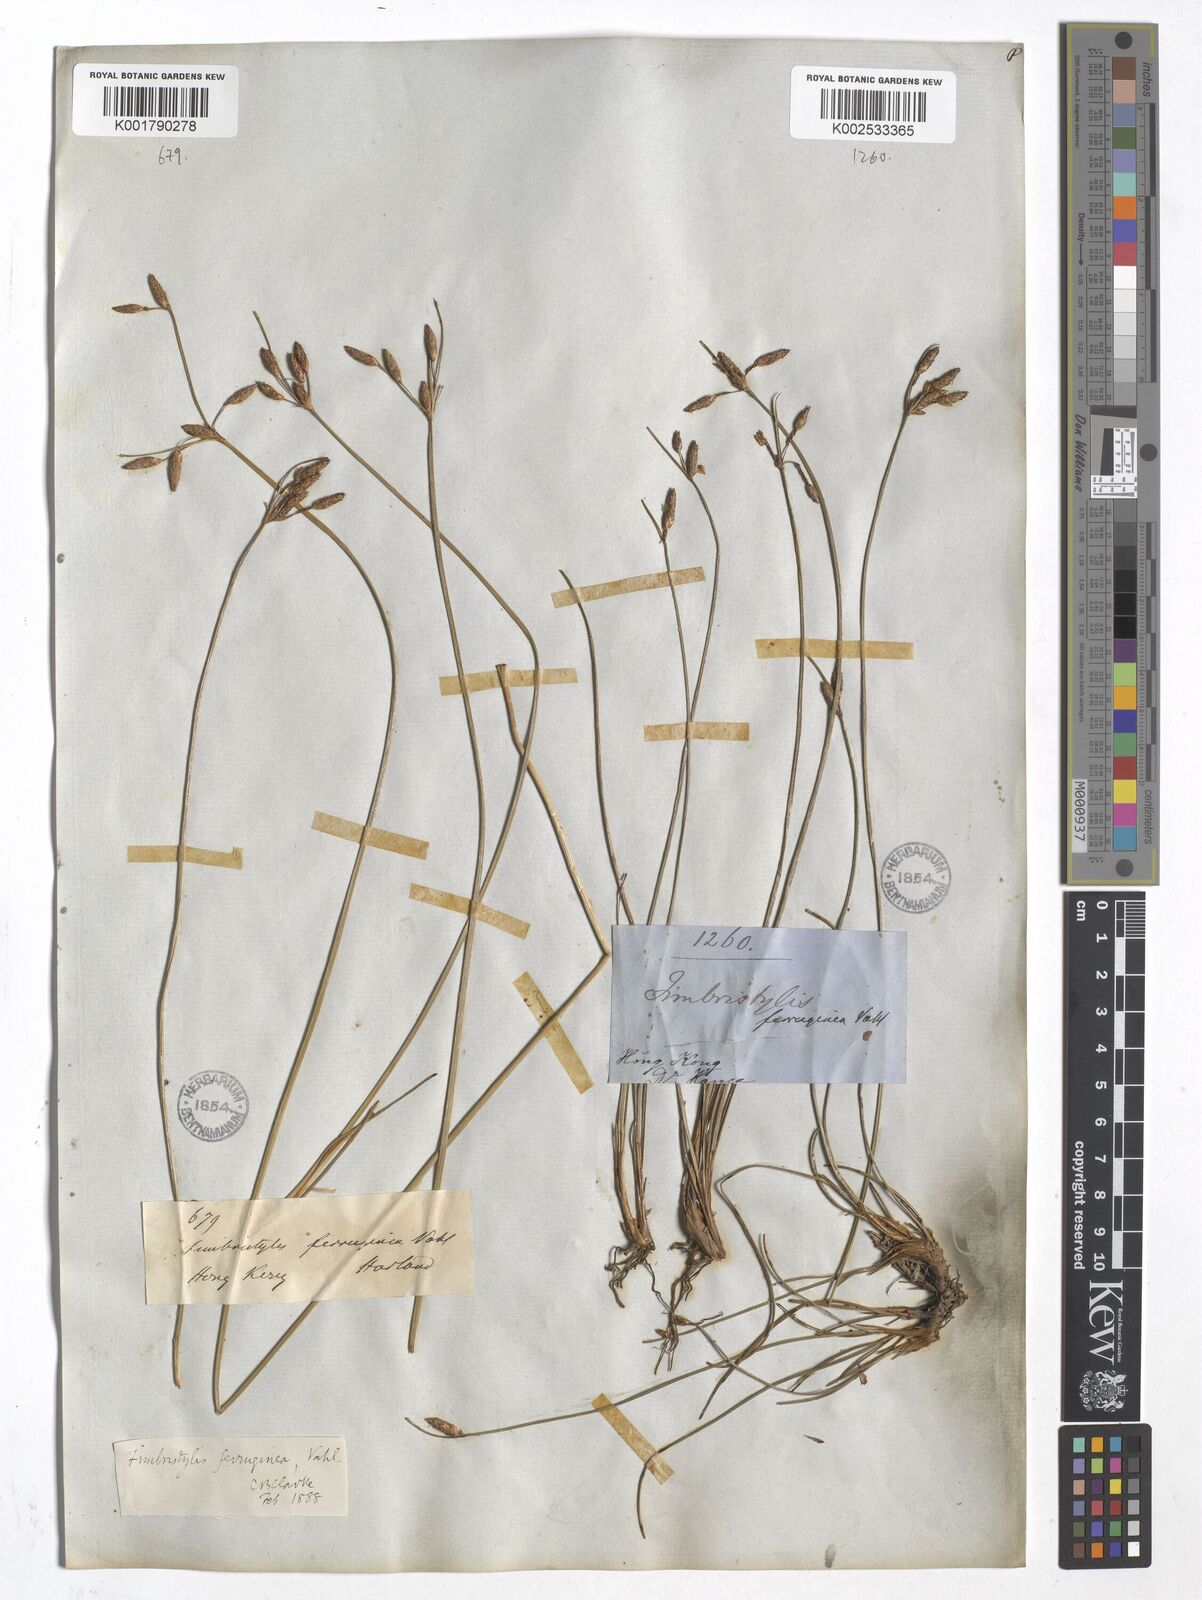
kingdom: Plantae
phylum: Tracheophyta
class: Liliopsida
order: Poales
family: Cyperaceae
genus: Fimbristylis
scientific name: Fimbristylis ferruginea
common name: West indian fimbry
